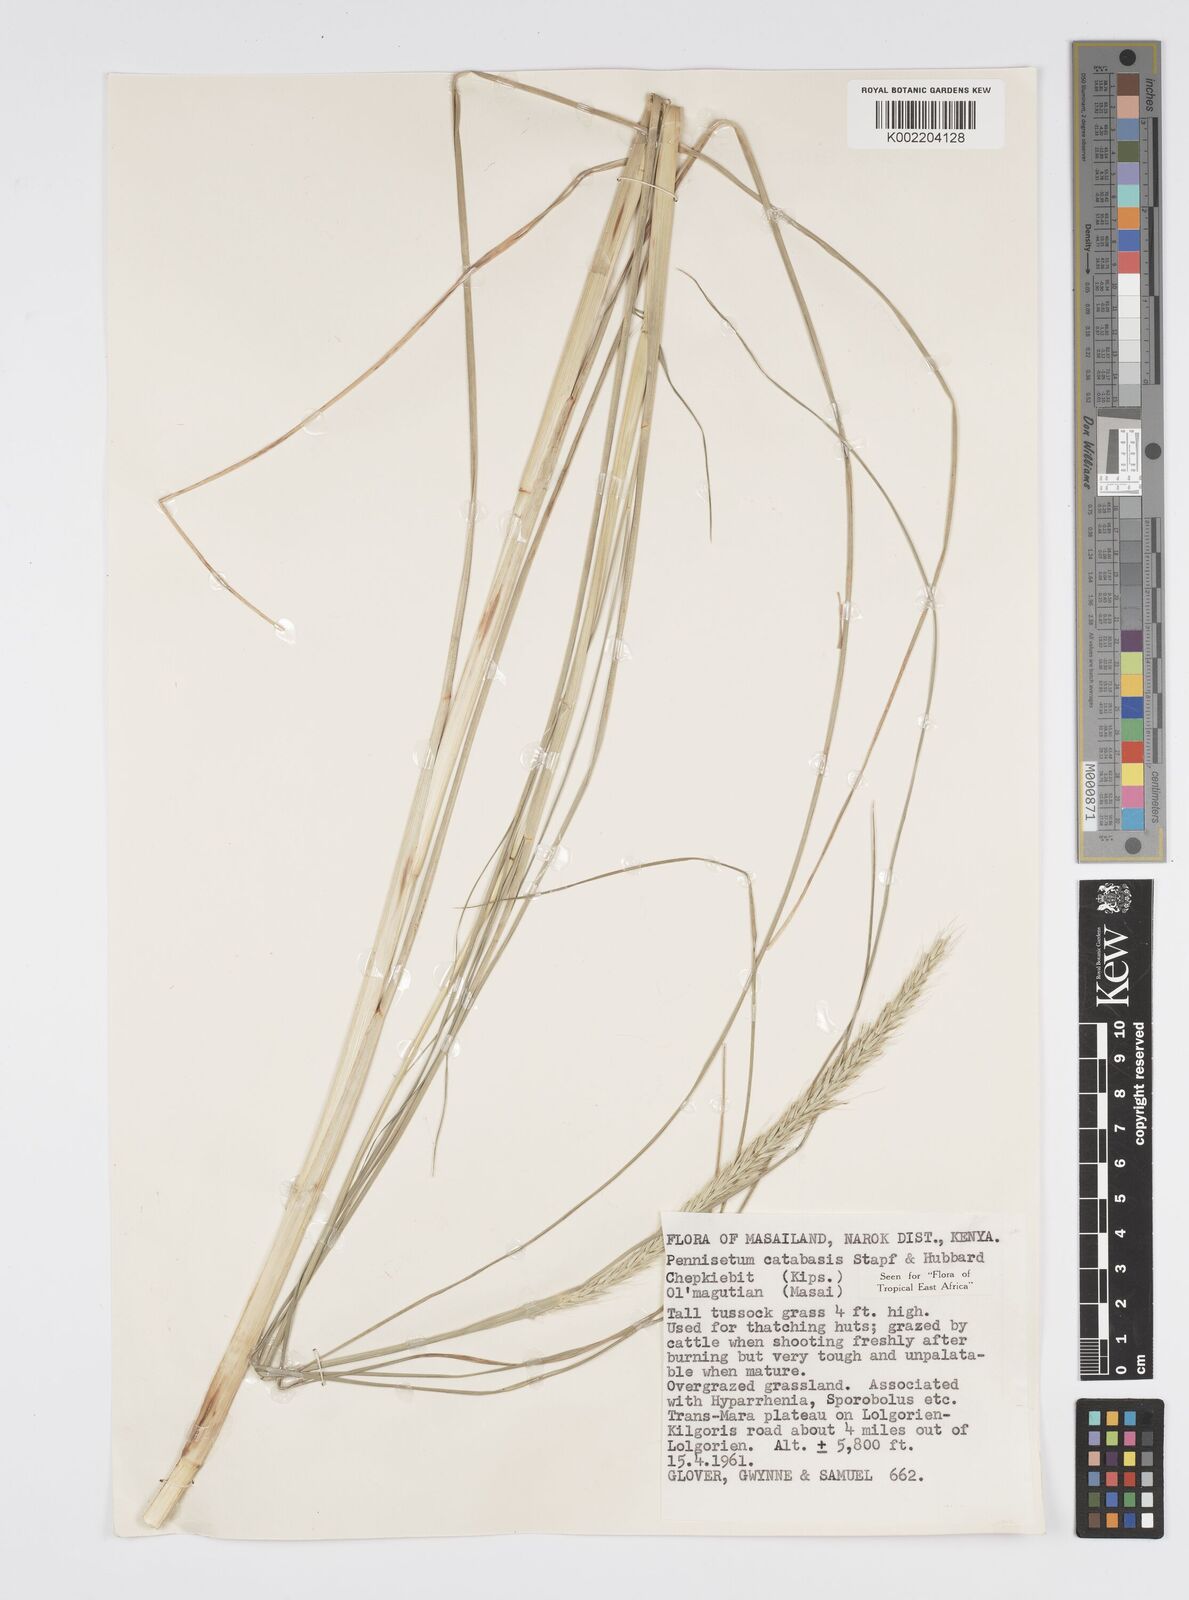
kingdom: Plantae
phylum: Tracheophyta
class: Liliopsida
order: Poales
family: Poaceae
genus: Cenchrus
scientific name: Cenchrus hohenackeri
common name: Moya grass
